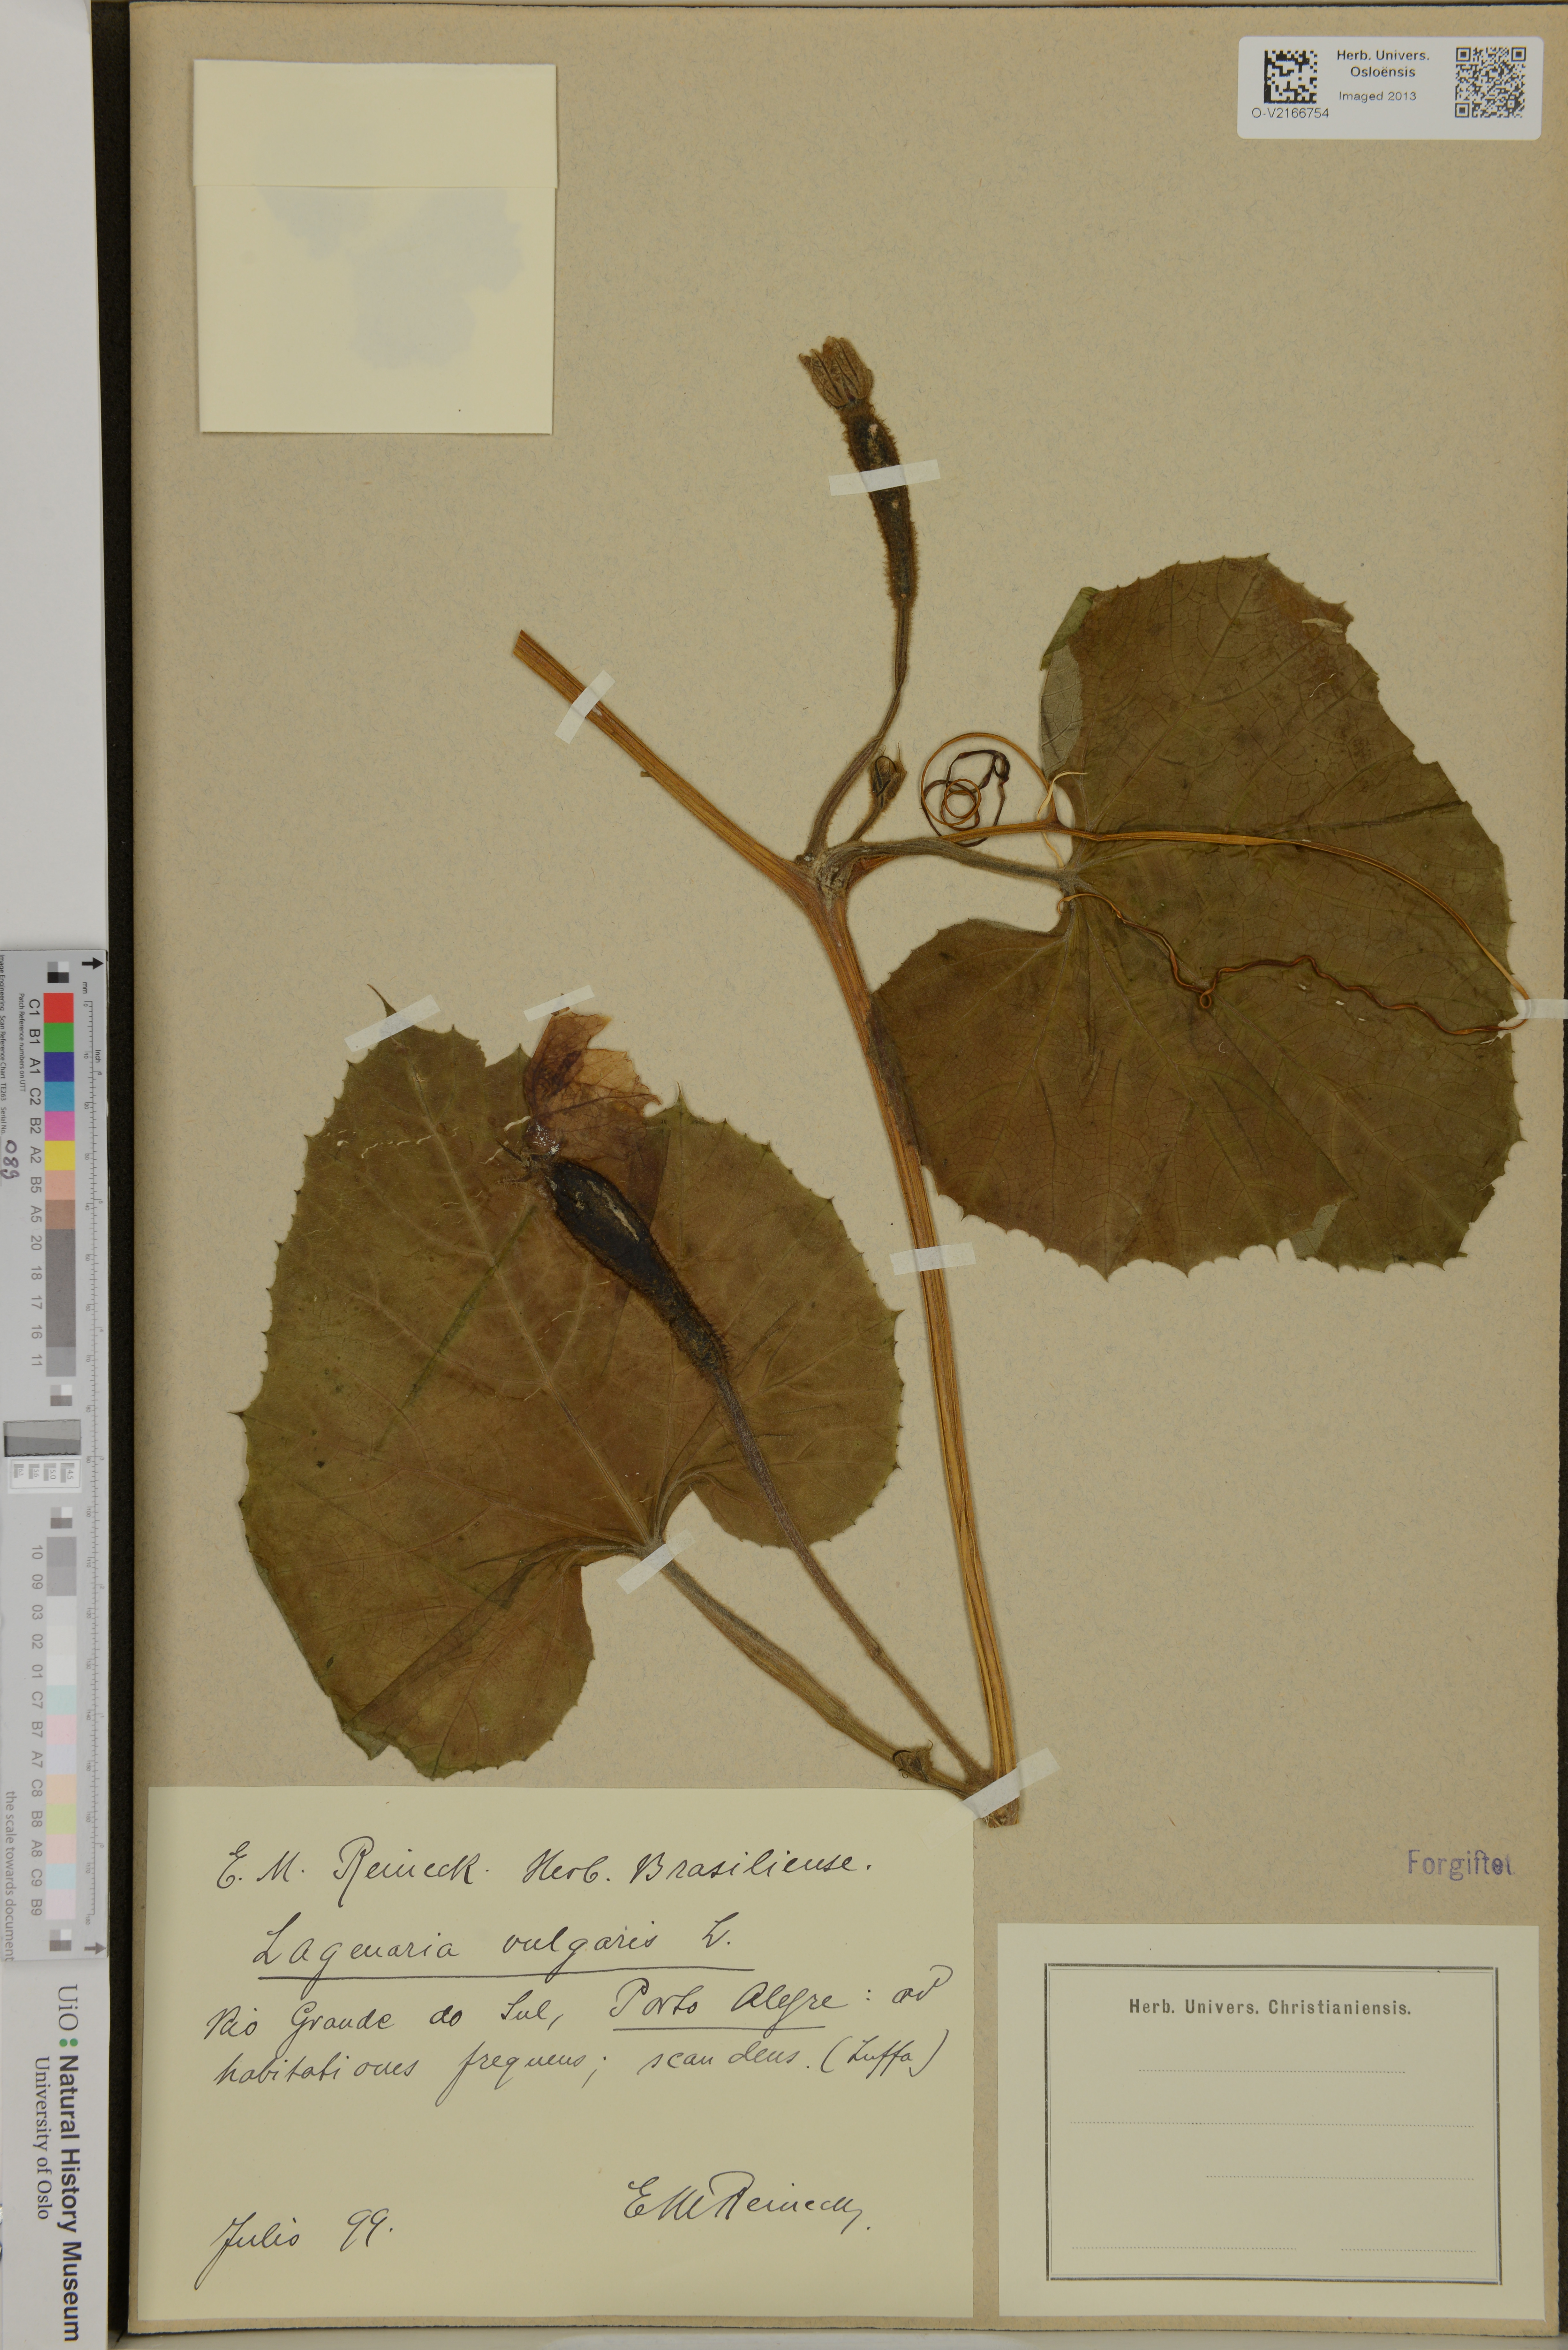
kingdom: Plantae
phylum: Tracheophyta
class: Magnoliopsida
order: Cucurbitales
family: Cucurbitaceae
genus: Lagenaria
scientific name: Lagenaria siceraria
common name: Bottle gourd
